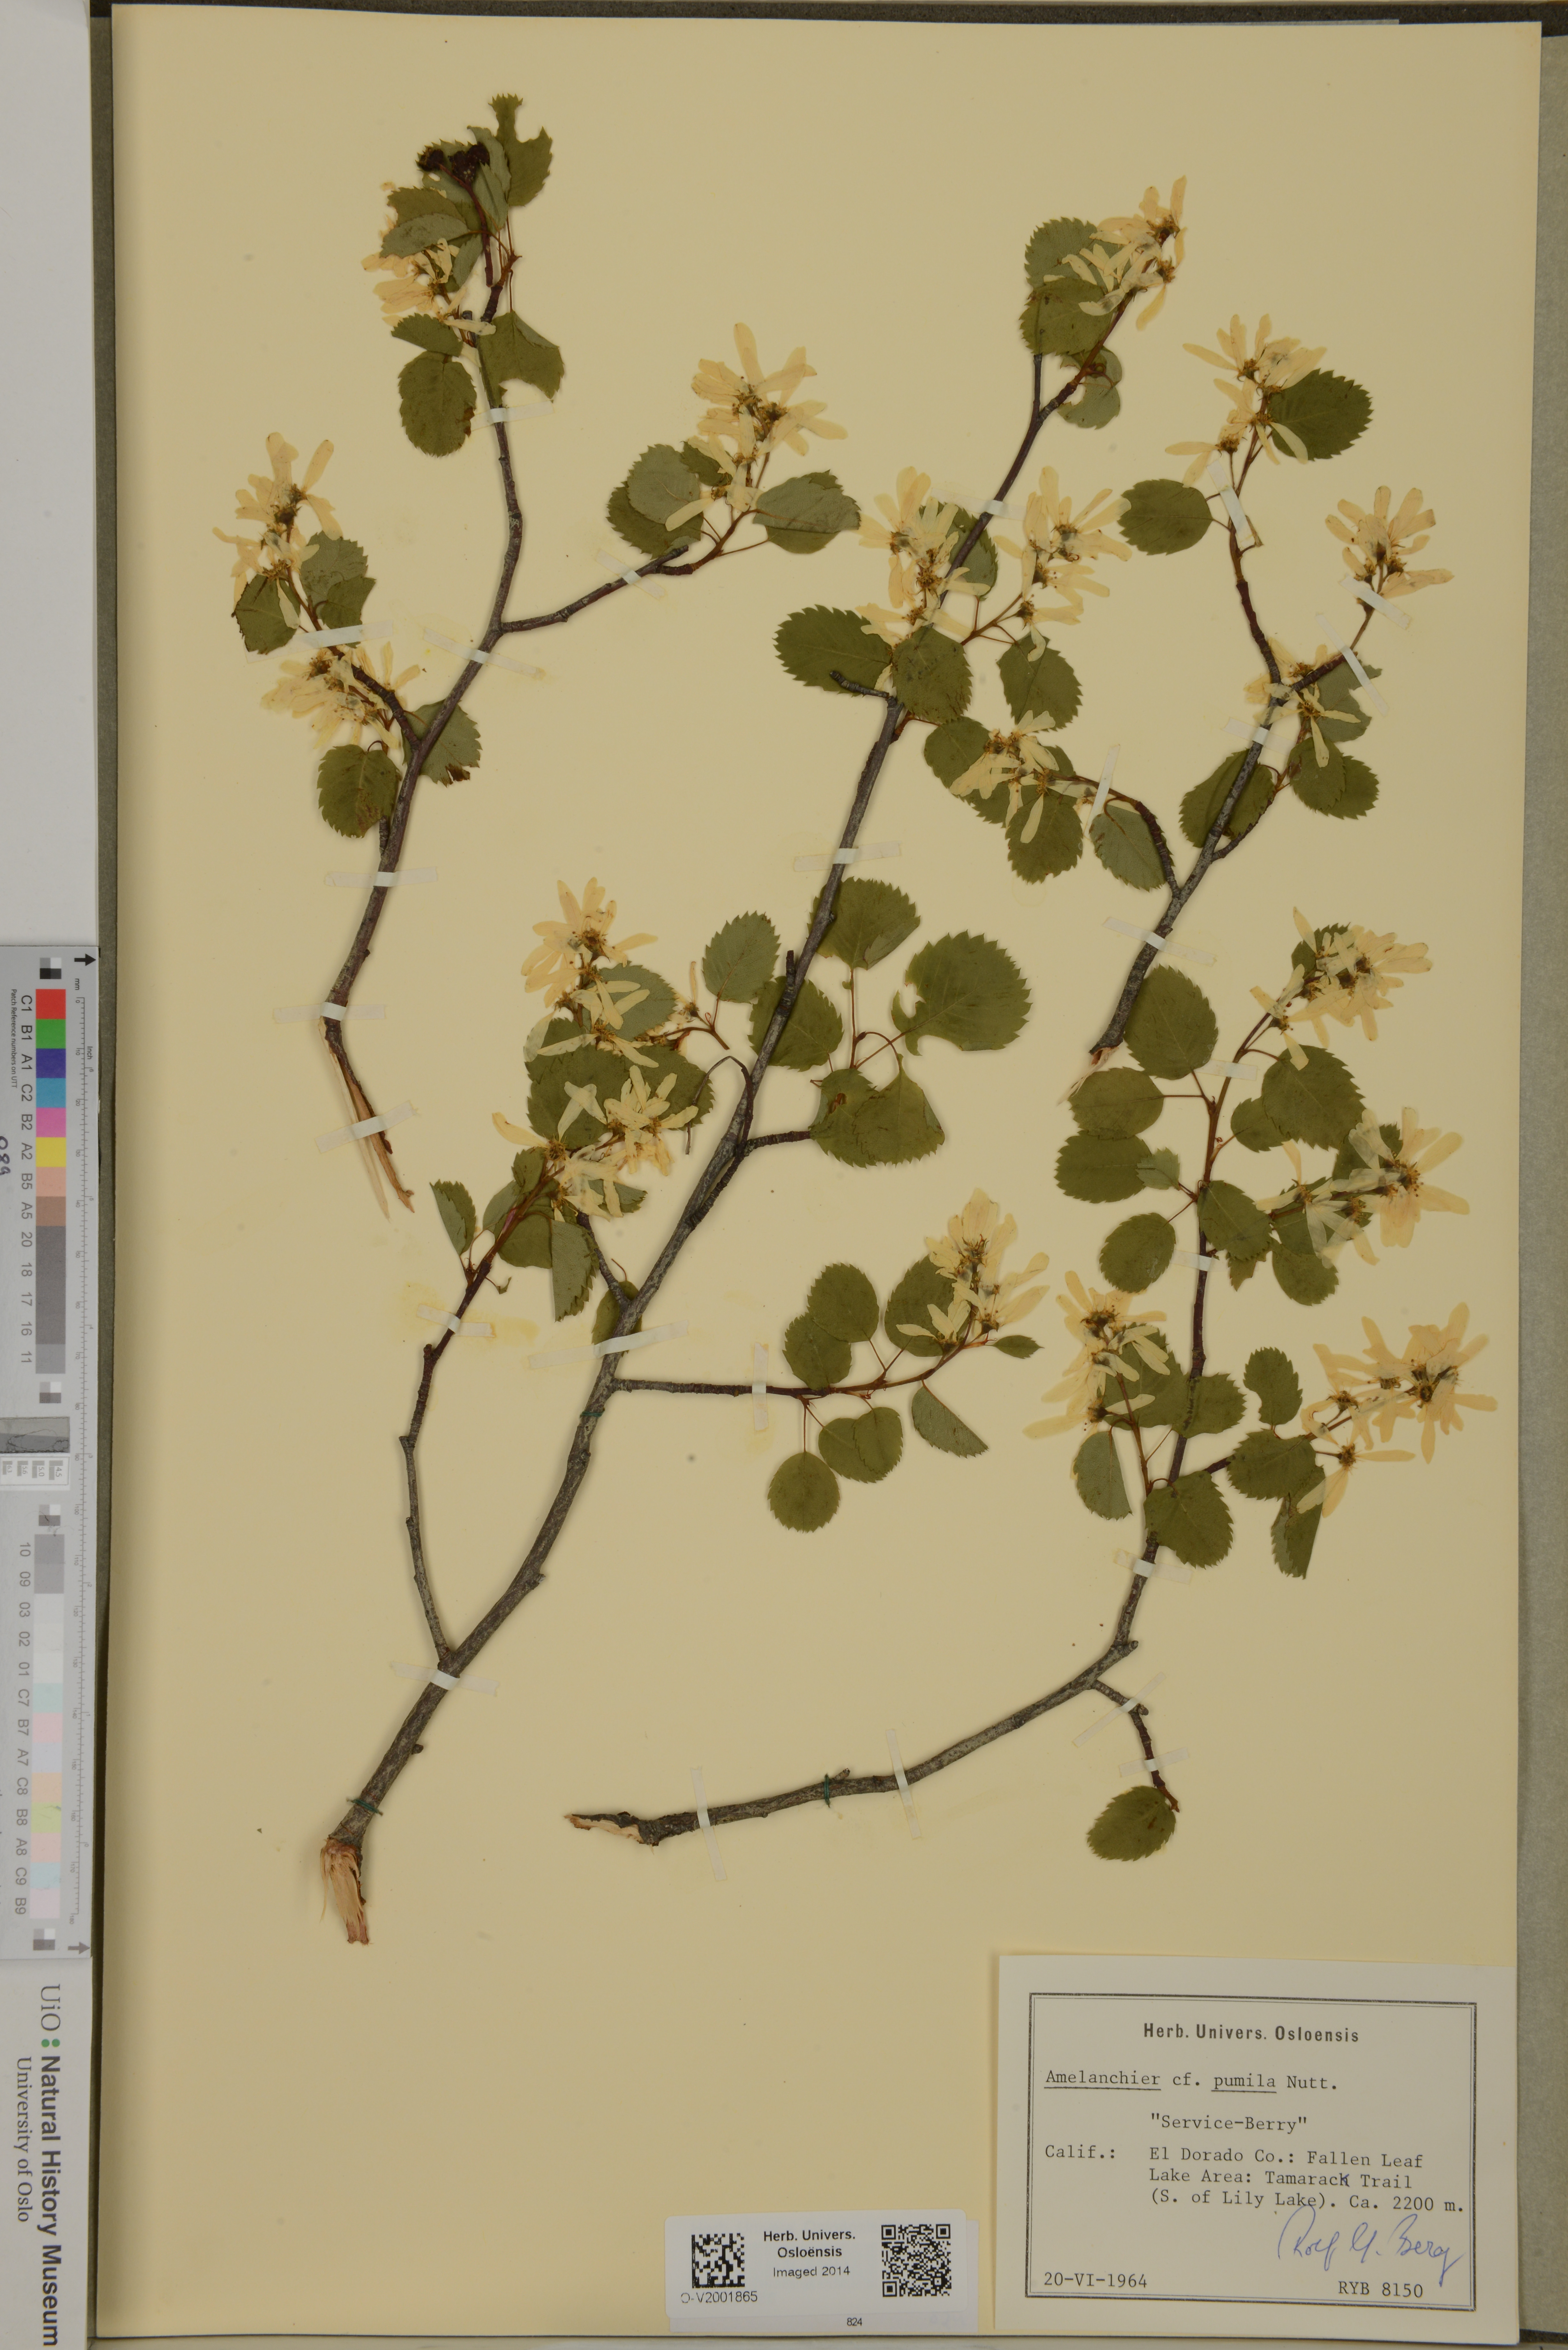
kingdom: Plantae
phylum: Tracheophyta
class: Magnoliopsida
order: Rosales
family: Rosaceae
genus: Amelanchier
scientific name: Amelanchier pumila
